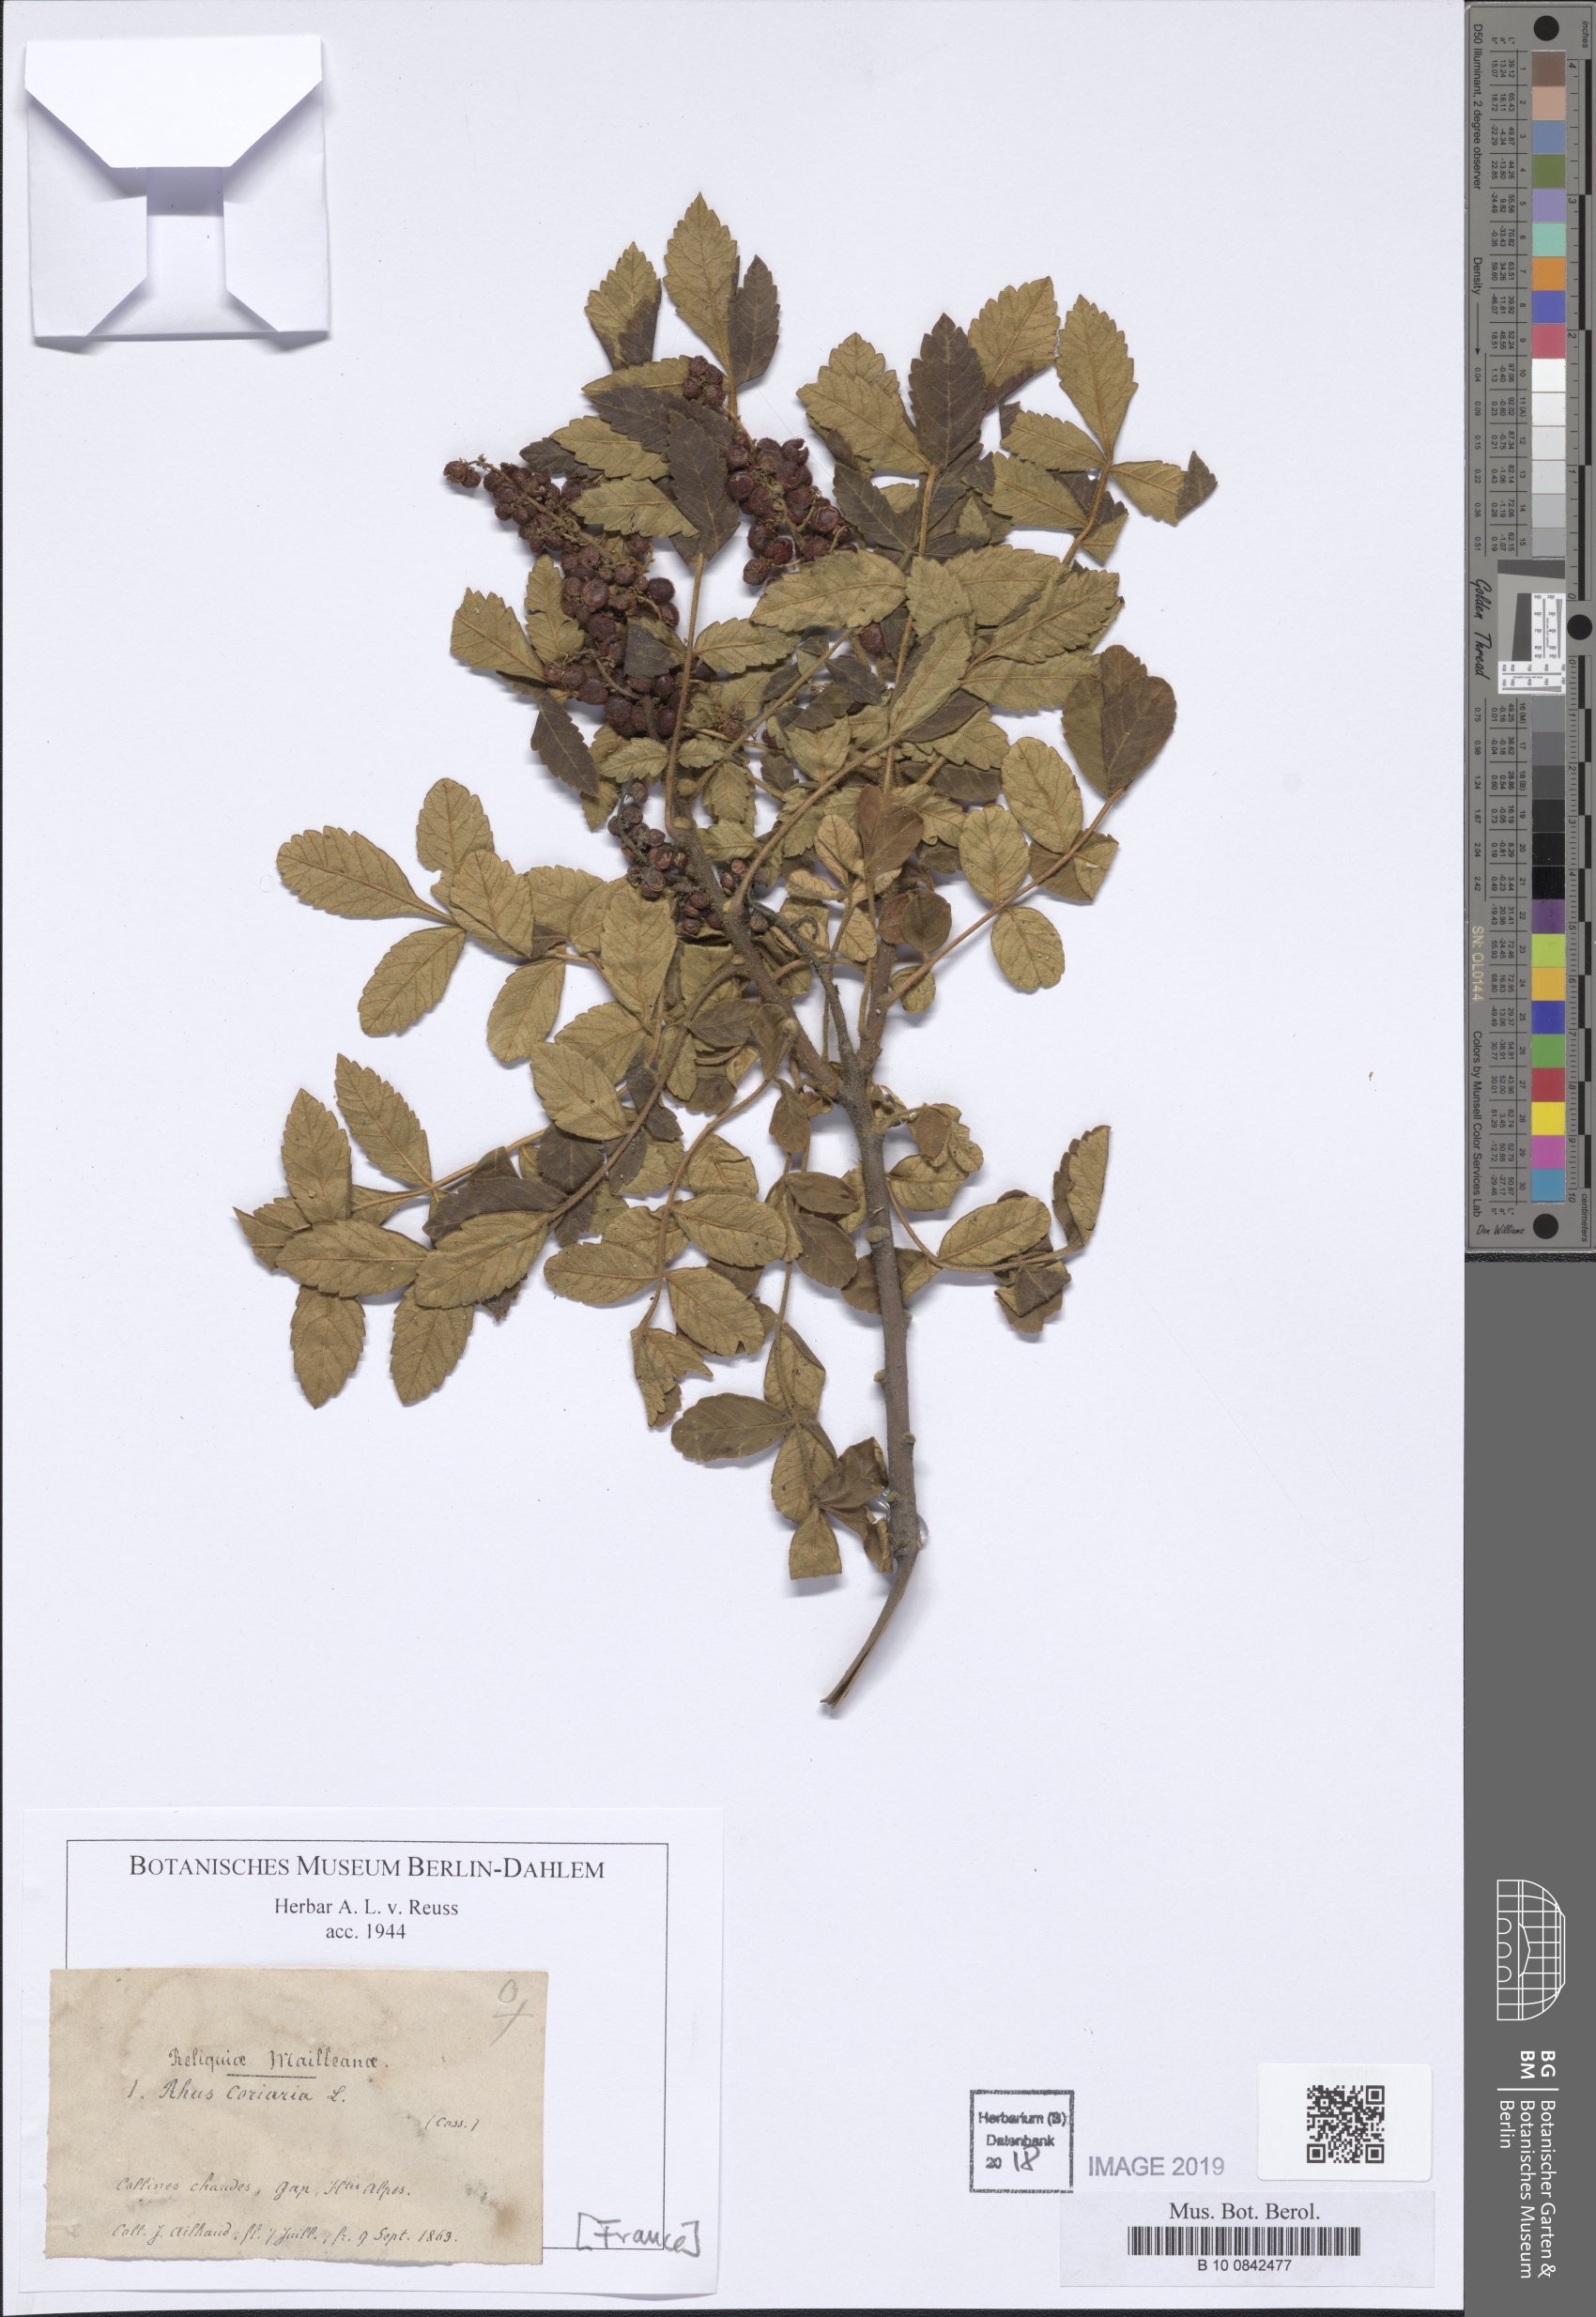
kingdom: Plantae
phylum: Tracheophyta
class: Magnoliopsida
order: Sapindales
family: Anacardiaceae
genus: Rhus
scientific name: Rhus coriaria
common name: Tanner's sumach
